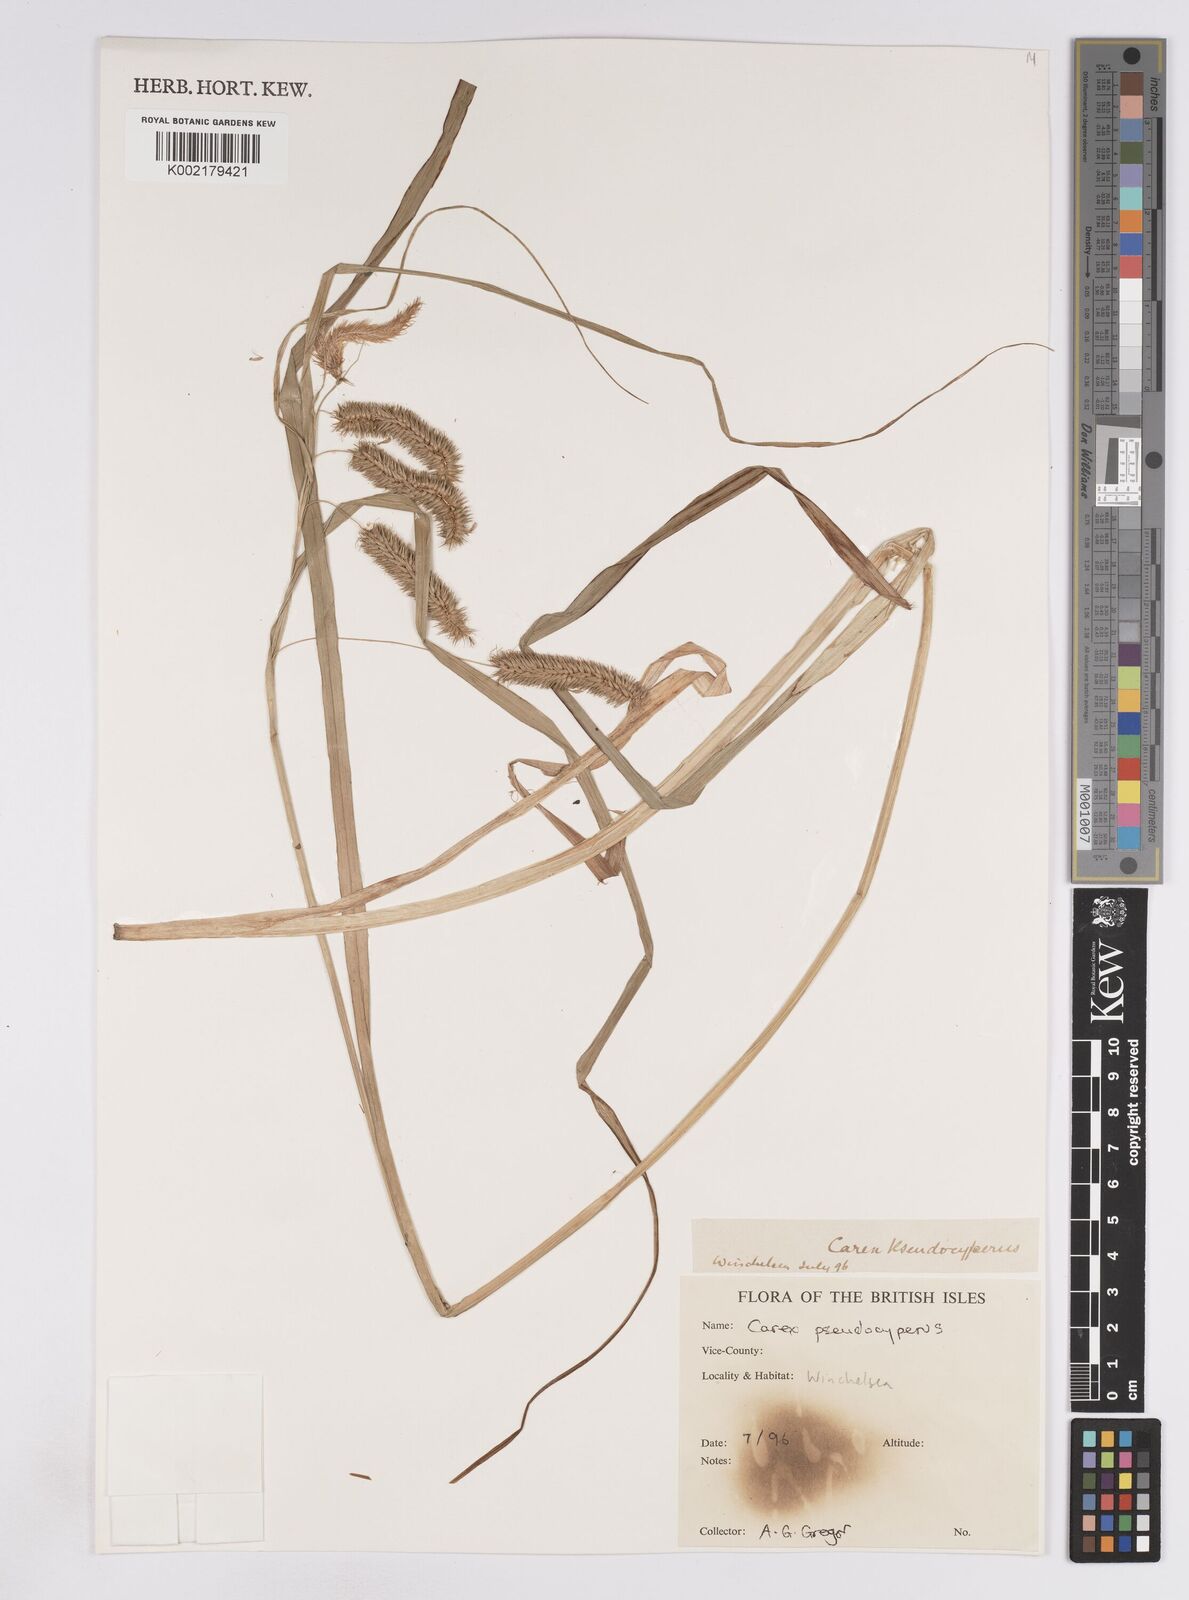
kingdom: Plantae
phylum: Tracheophyta
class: Liliopsida
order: Poales
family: Cyperaceae
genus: Carex
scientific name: Carex pseudocyperus
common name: Cyperus sedge
